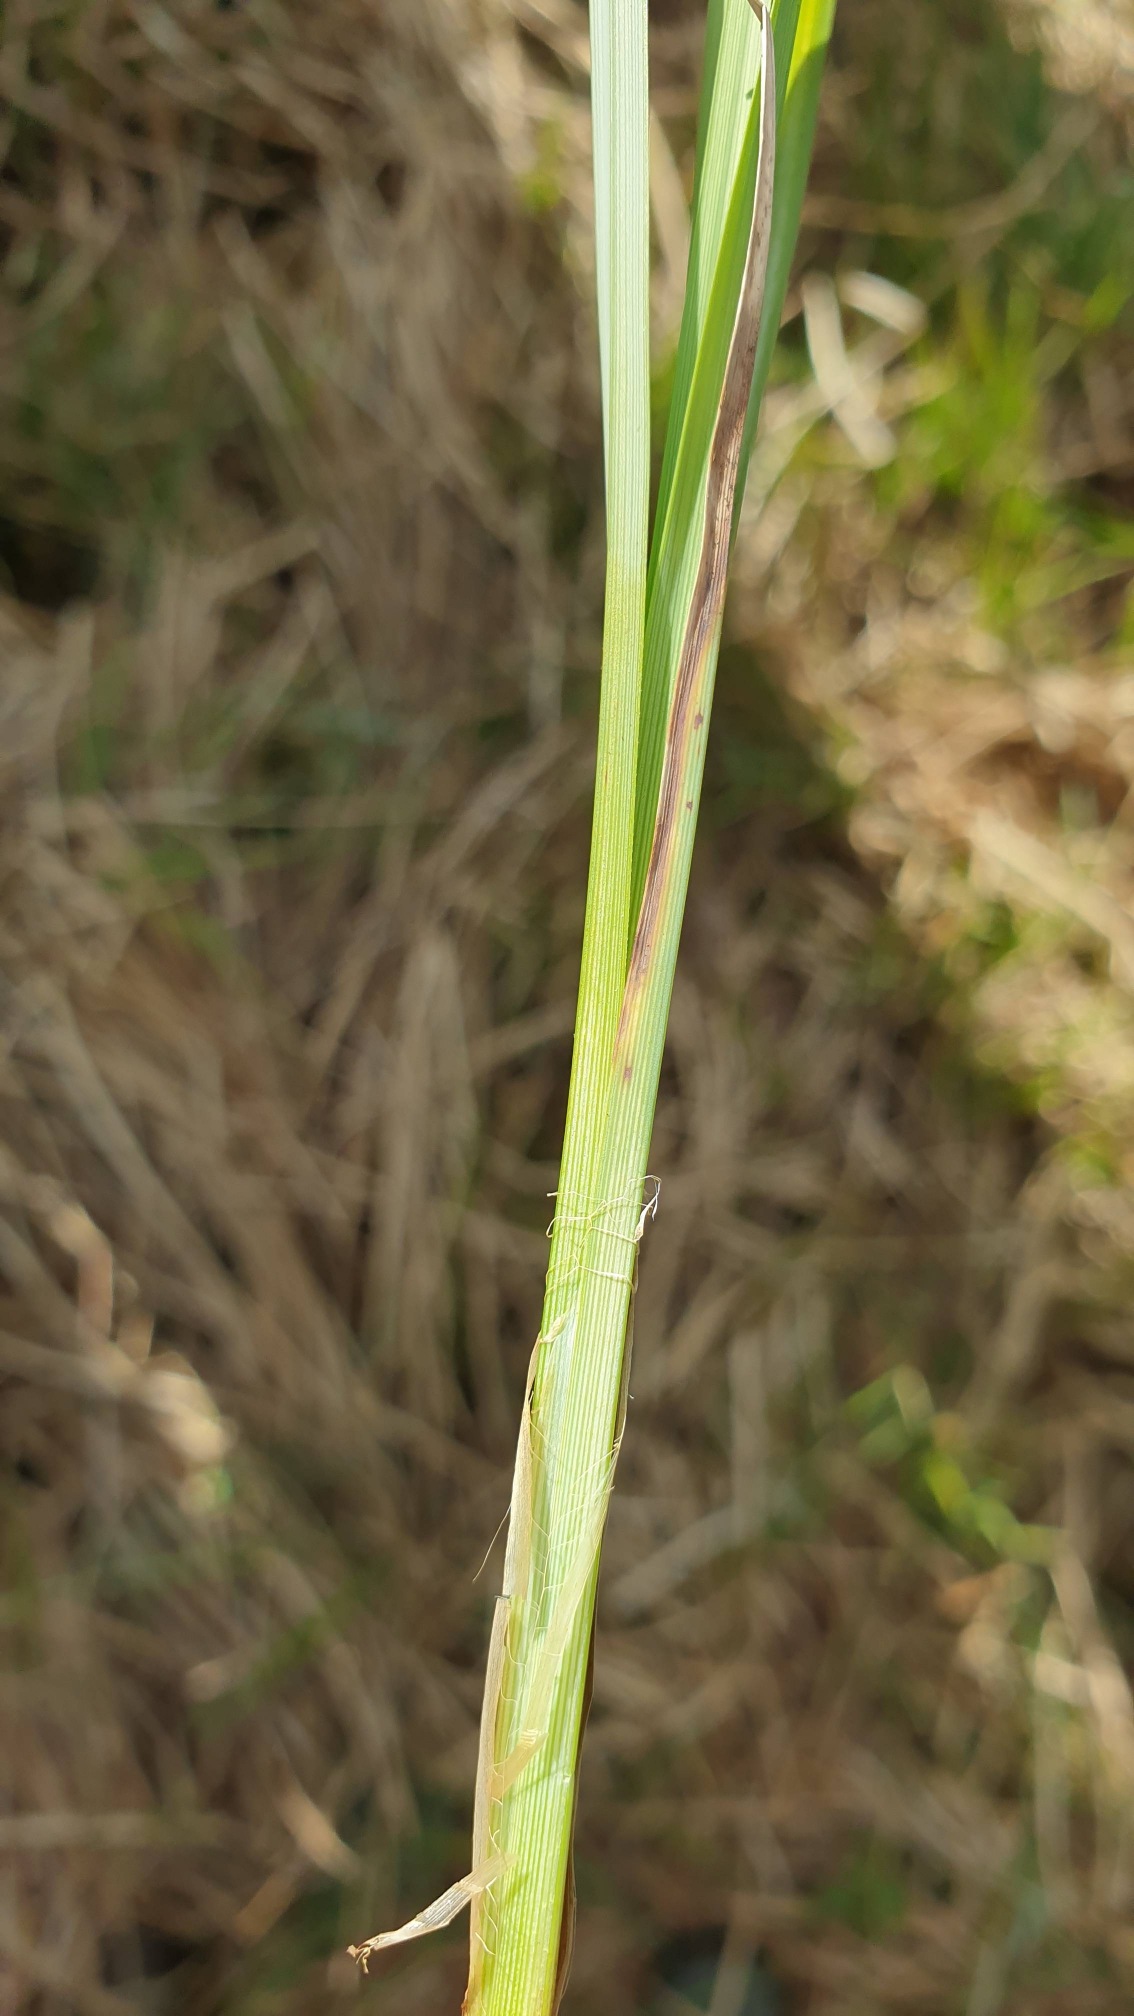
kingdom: Plantae
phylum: Tracheophyta
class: Liliopsida
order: Poales
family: Cyperaceae
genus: Carex
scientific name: Carex acutiformis
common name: Kær-star
